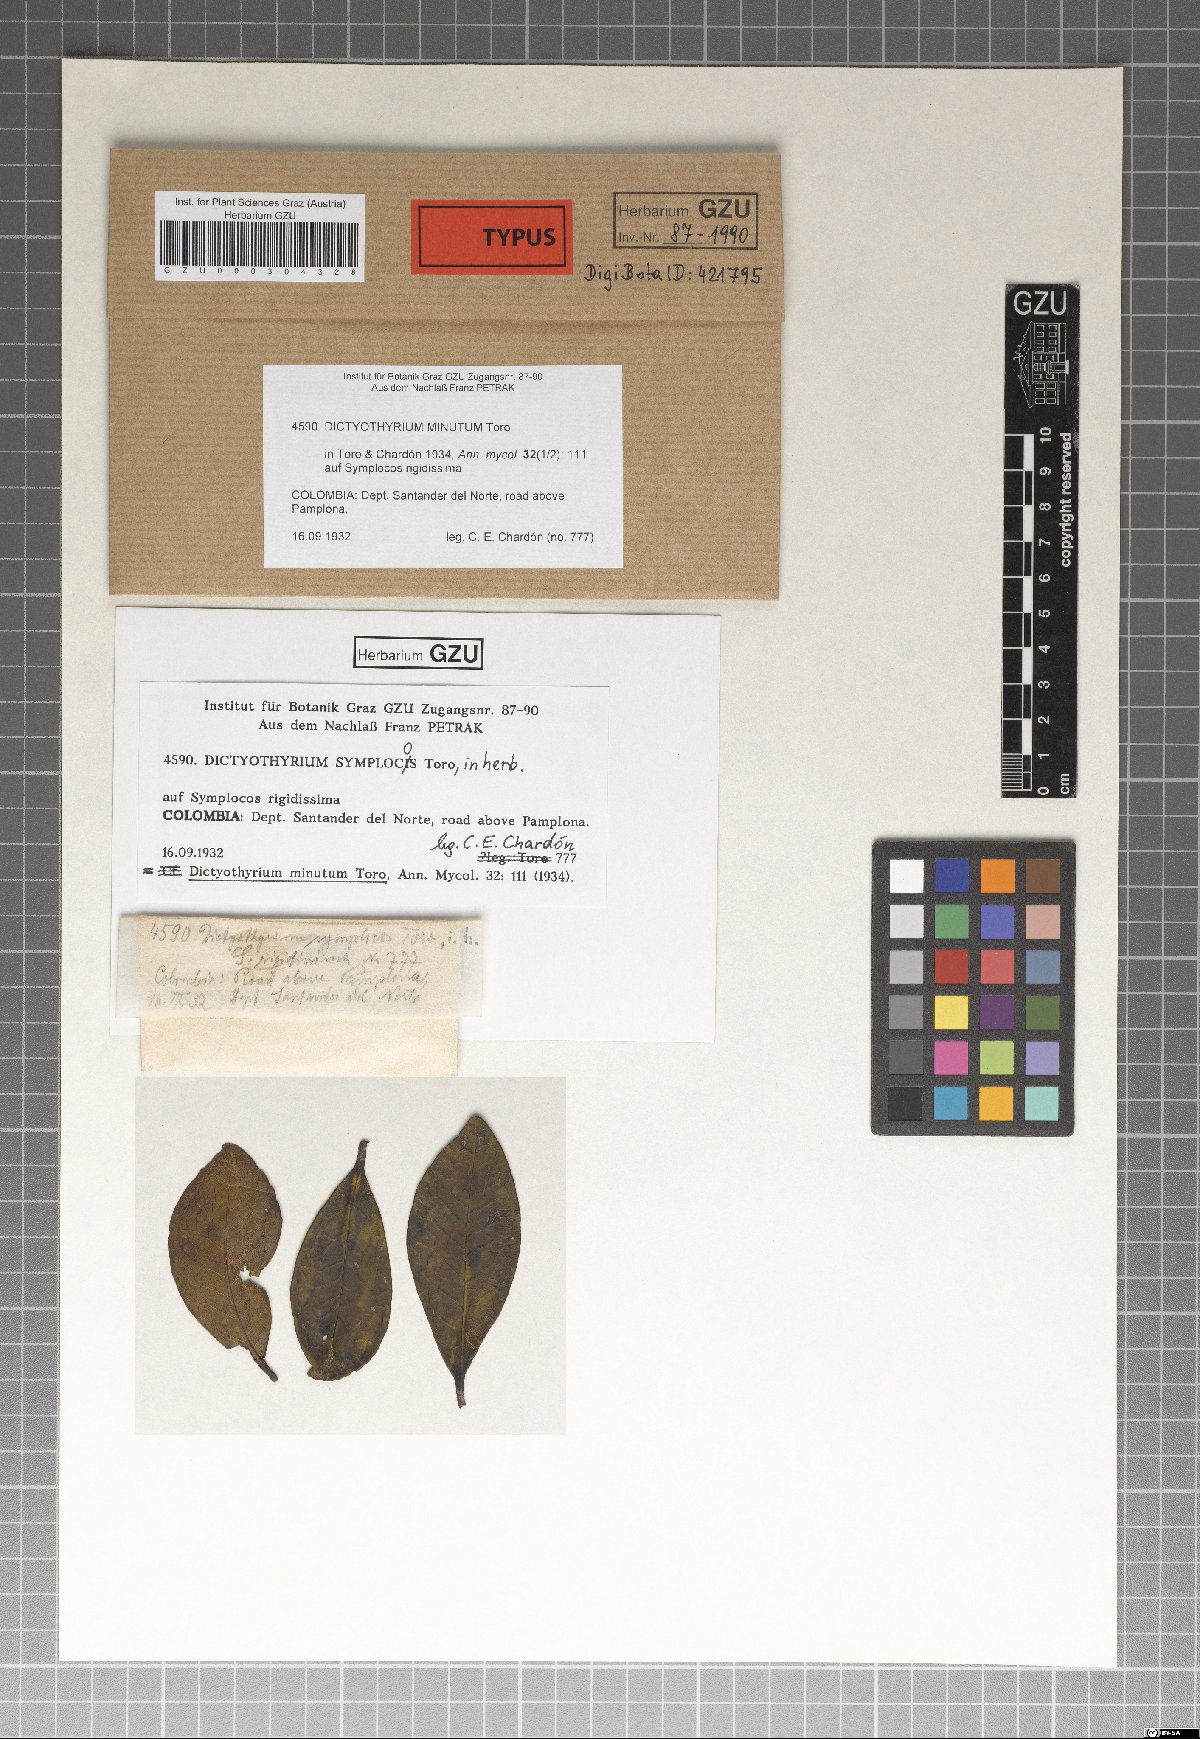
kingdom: Fungi
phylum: Ascomycota
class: Dothideomycetes
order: Microthyriales
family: Micropeltidaceae
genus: Dictyothyrium
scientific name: Dictyothyrium minutum
